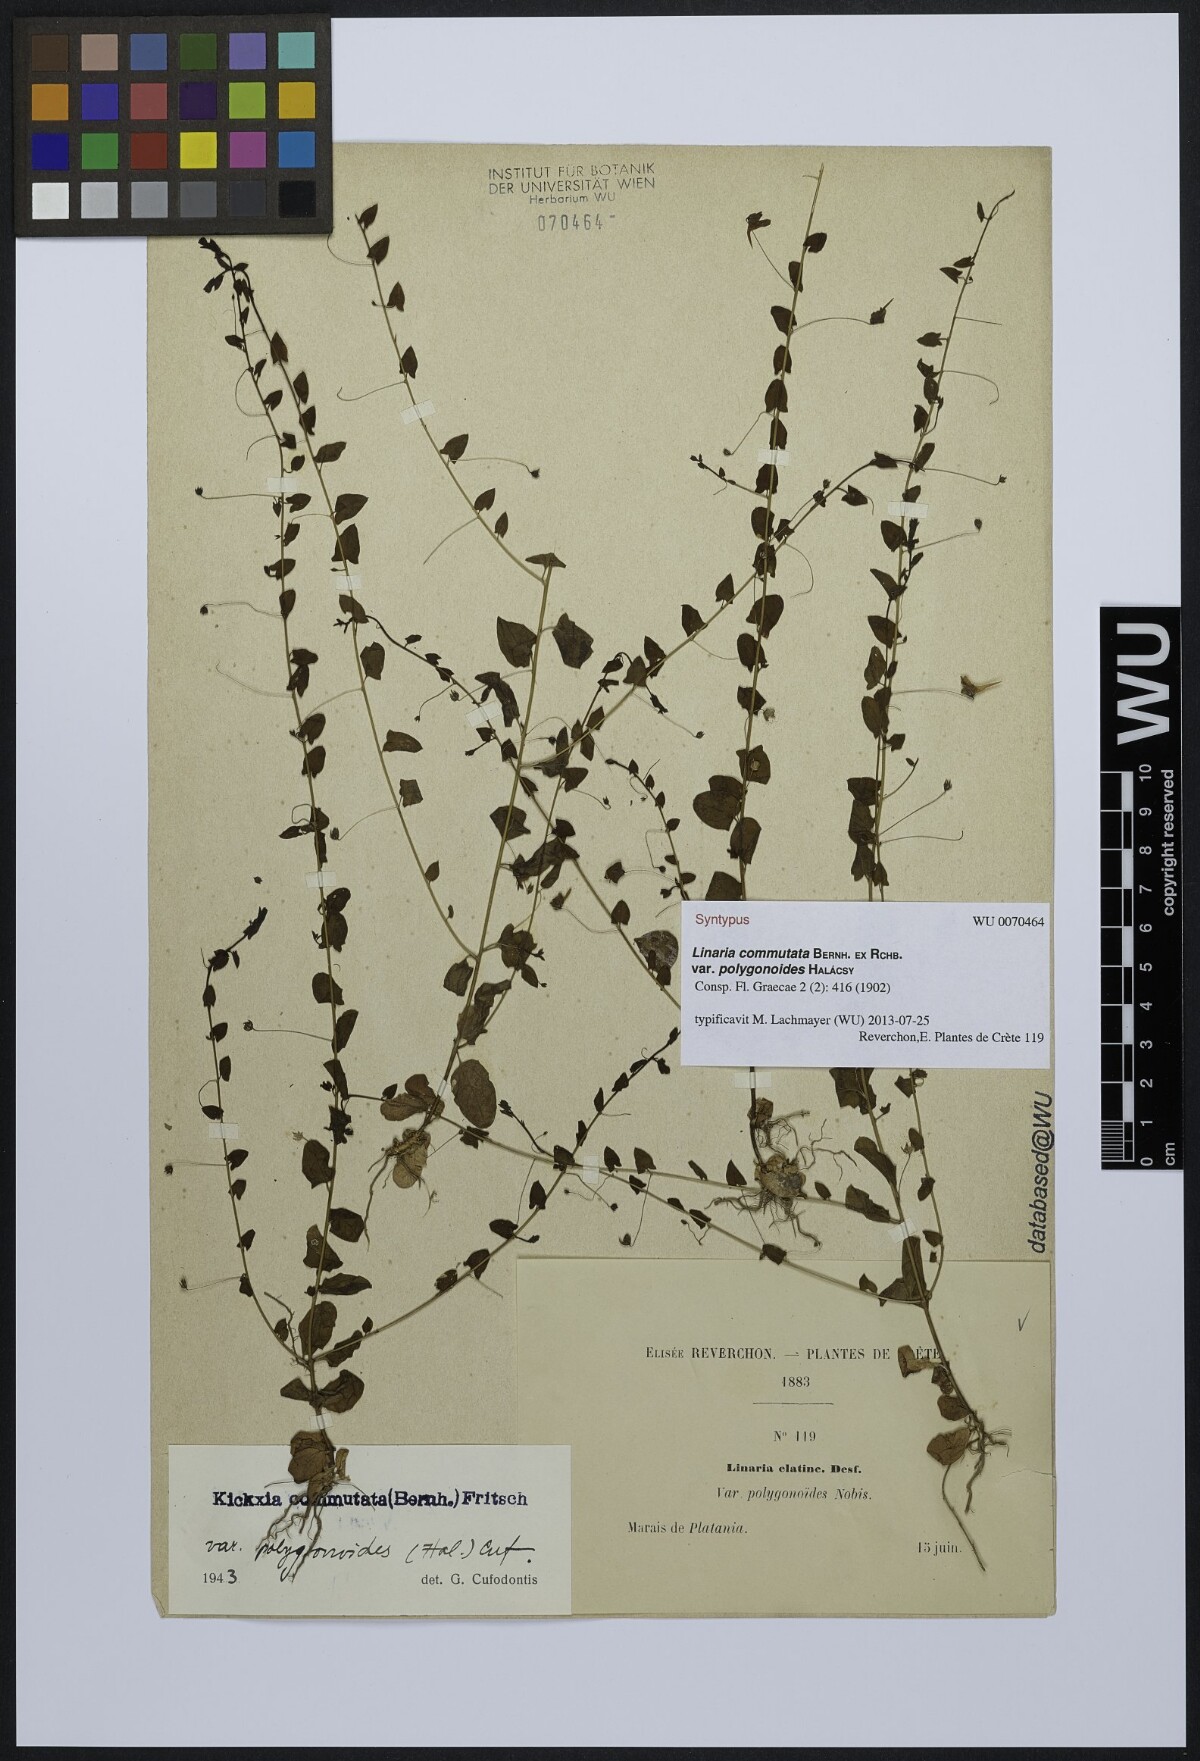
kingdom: Plantae
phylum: Tracheophyta
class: Magnoliopsida
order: Lamiales
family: Plantaginaceae
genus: Kickxia
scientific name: Kickxia commutata
